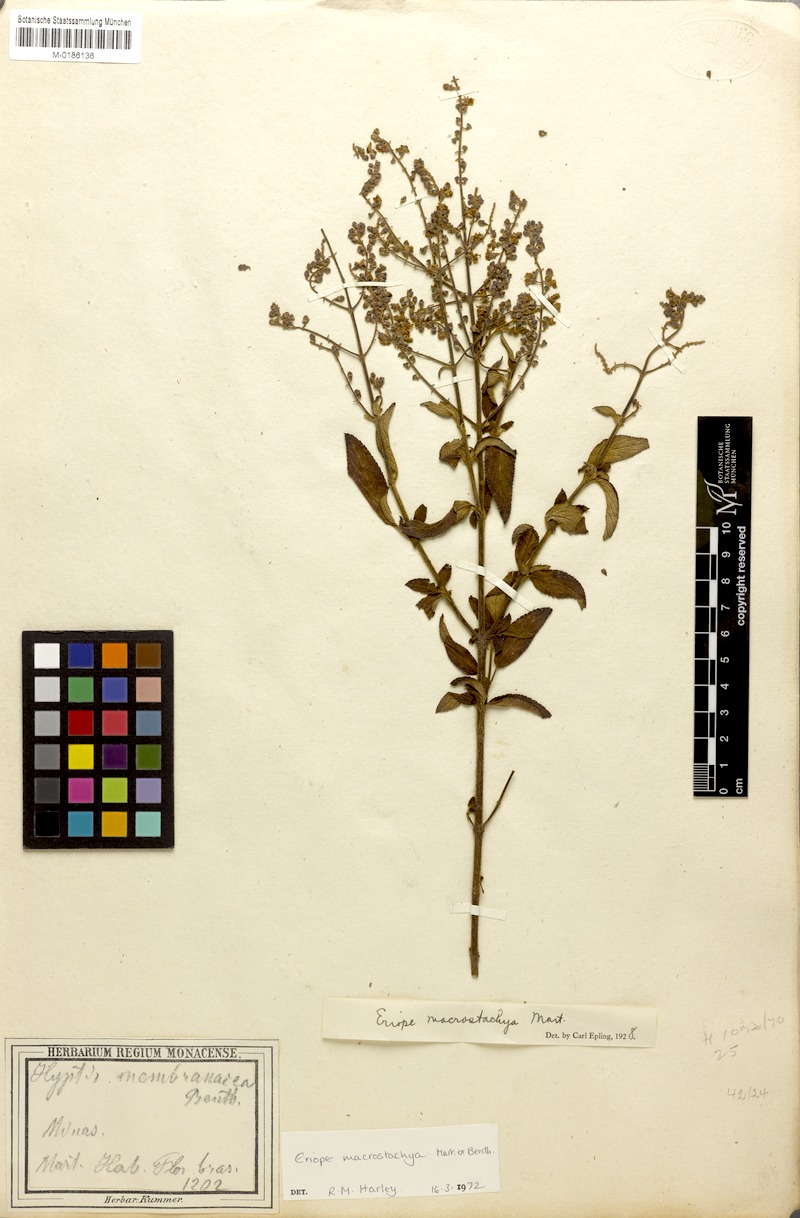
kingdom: Plantae
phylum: Tracheophyta
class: Magnoliopsida
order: Lamiales
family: Lamiaceae
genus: Eriope
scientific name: Eriope macrostachya
